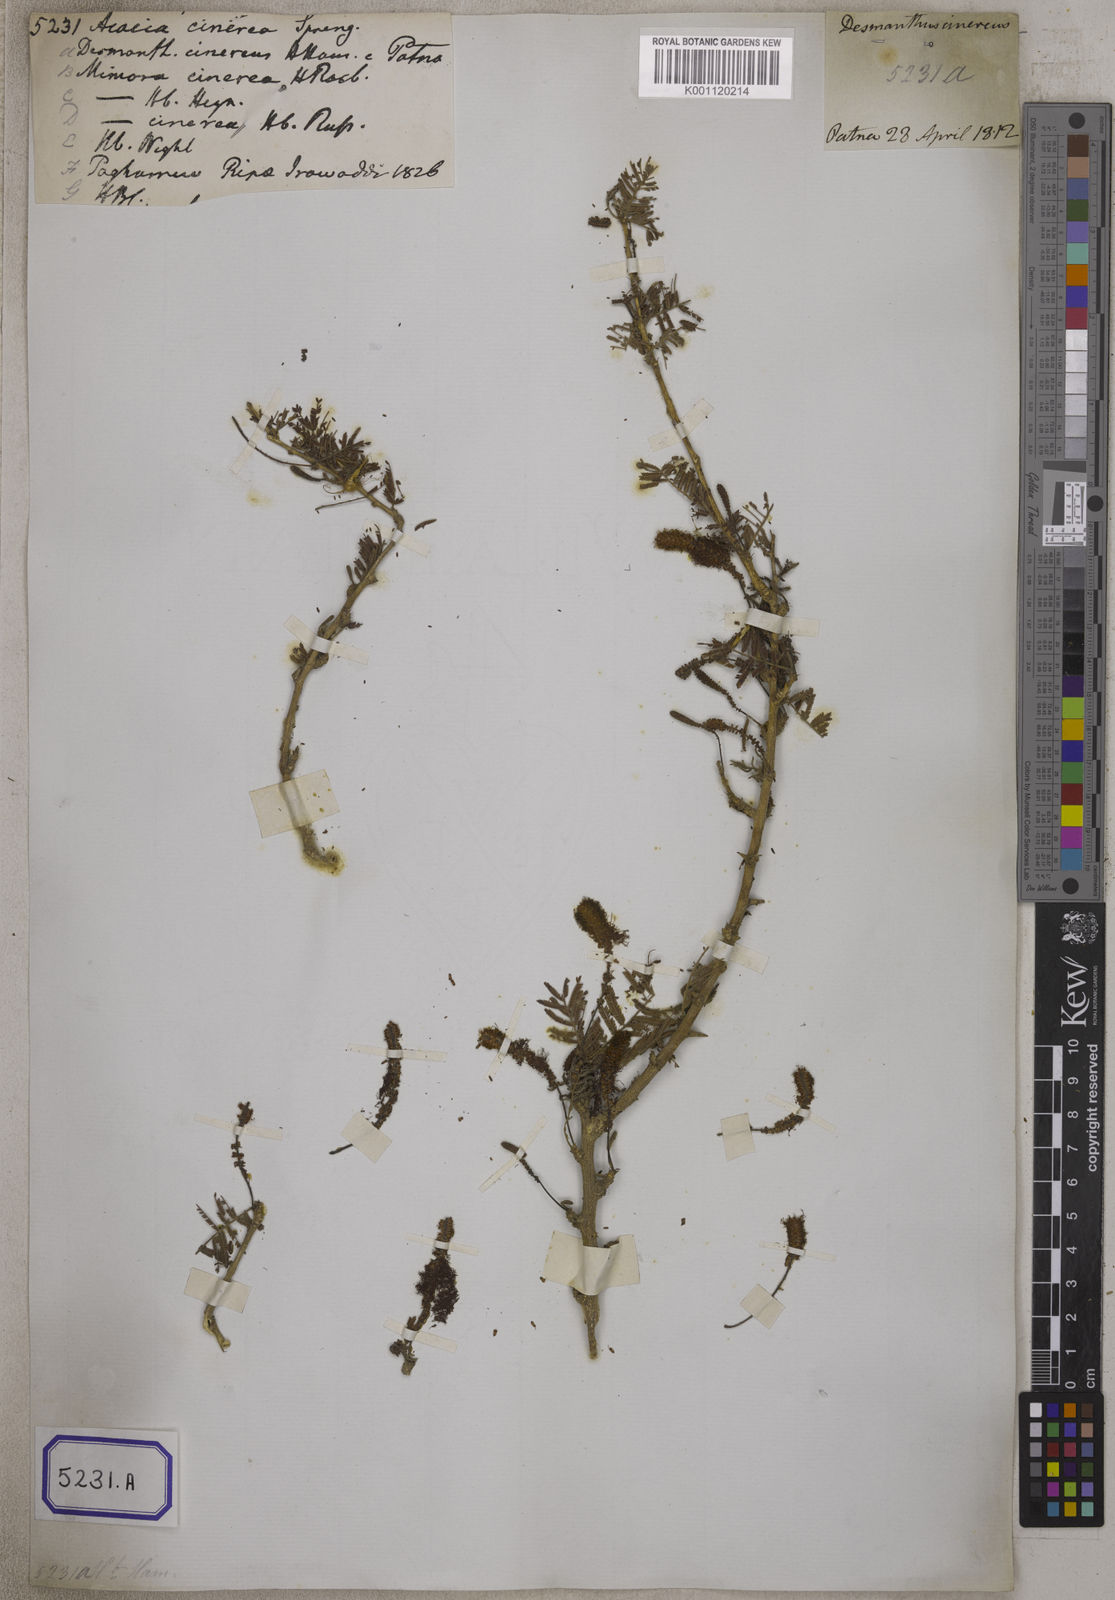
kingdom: Plantae
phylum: Tracheophyta
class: Magnoliopsida
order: Fabales
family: Fabaceae
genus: Dichrostachys
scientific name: Dichrostachys cinerea
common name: Sicklebush
